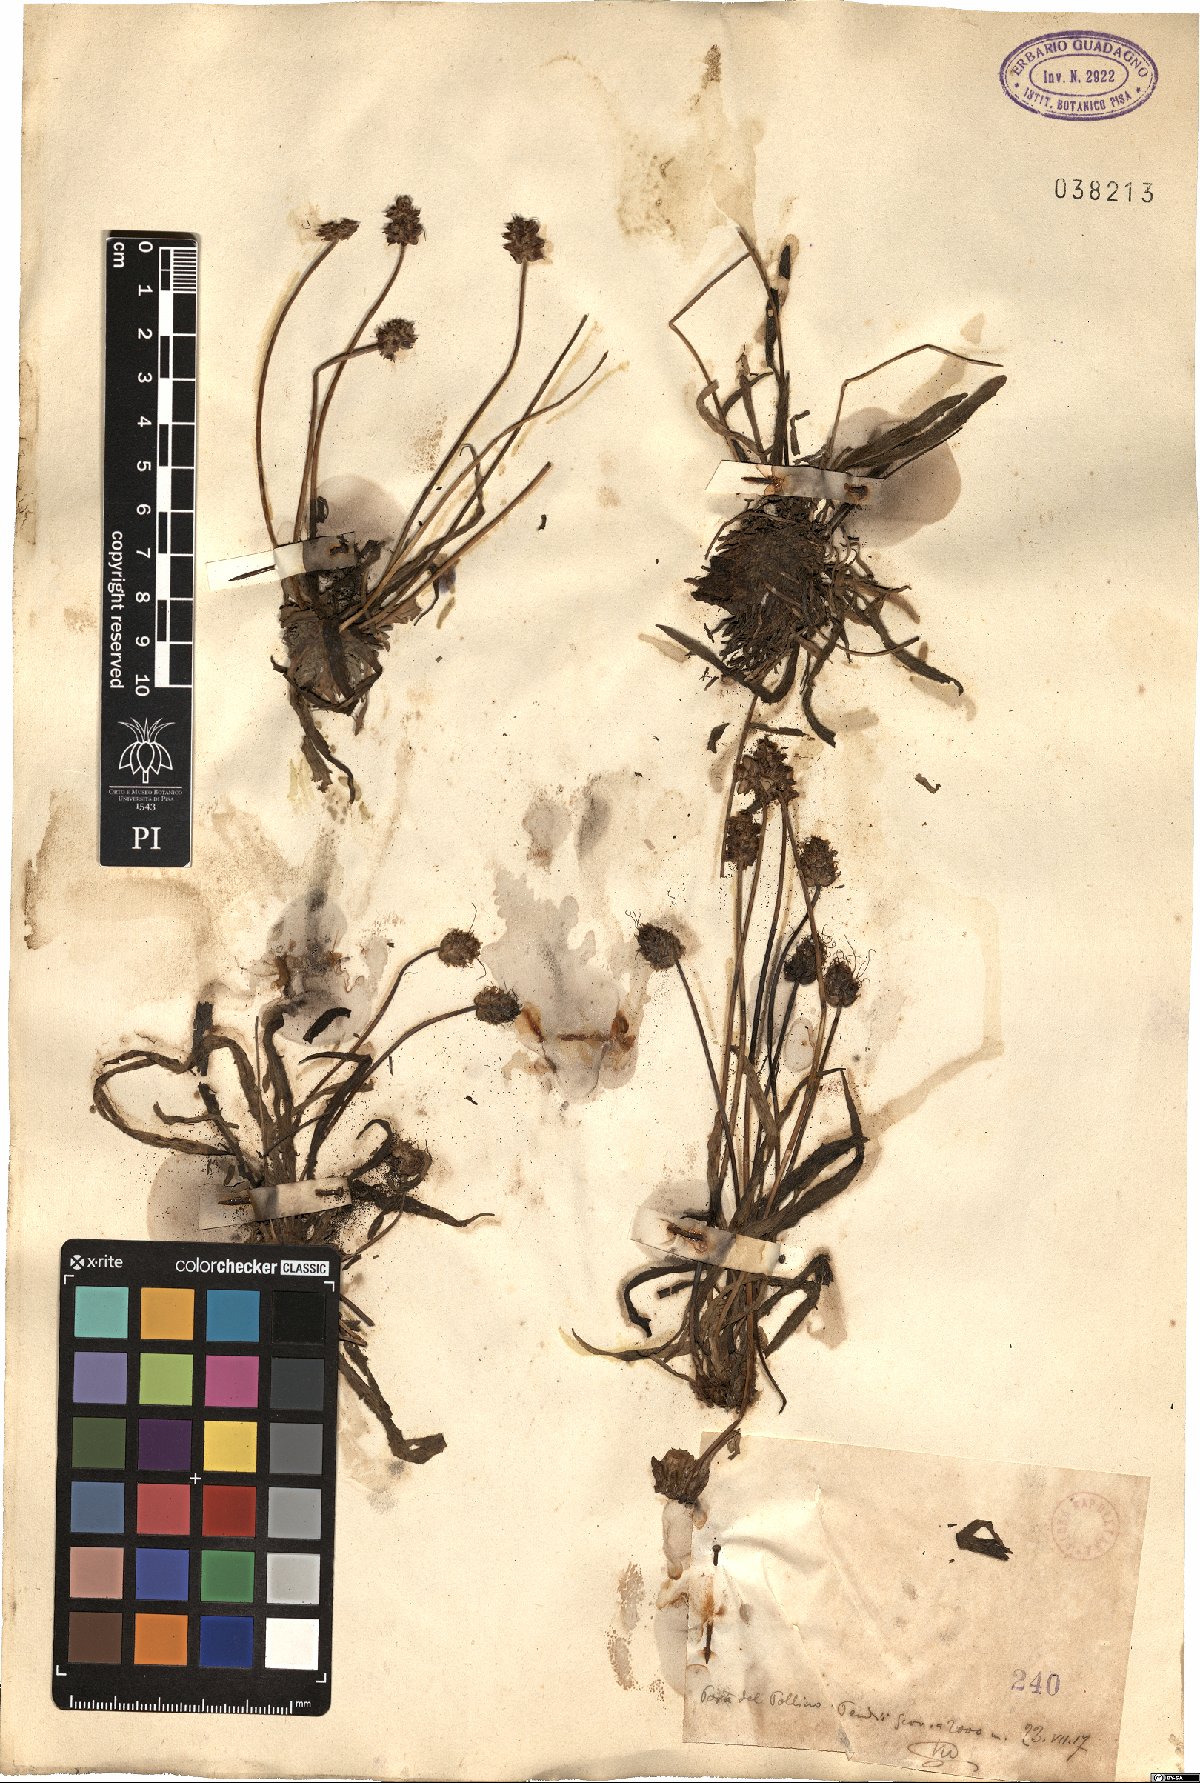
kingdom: Plantae
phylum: Tracheophyta
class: Magnoliopsida
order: Lamiales
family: Plantaginaceae
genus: Plantago
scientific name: Plantago
